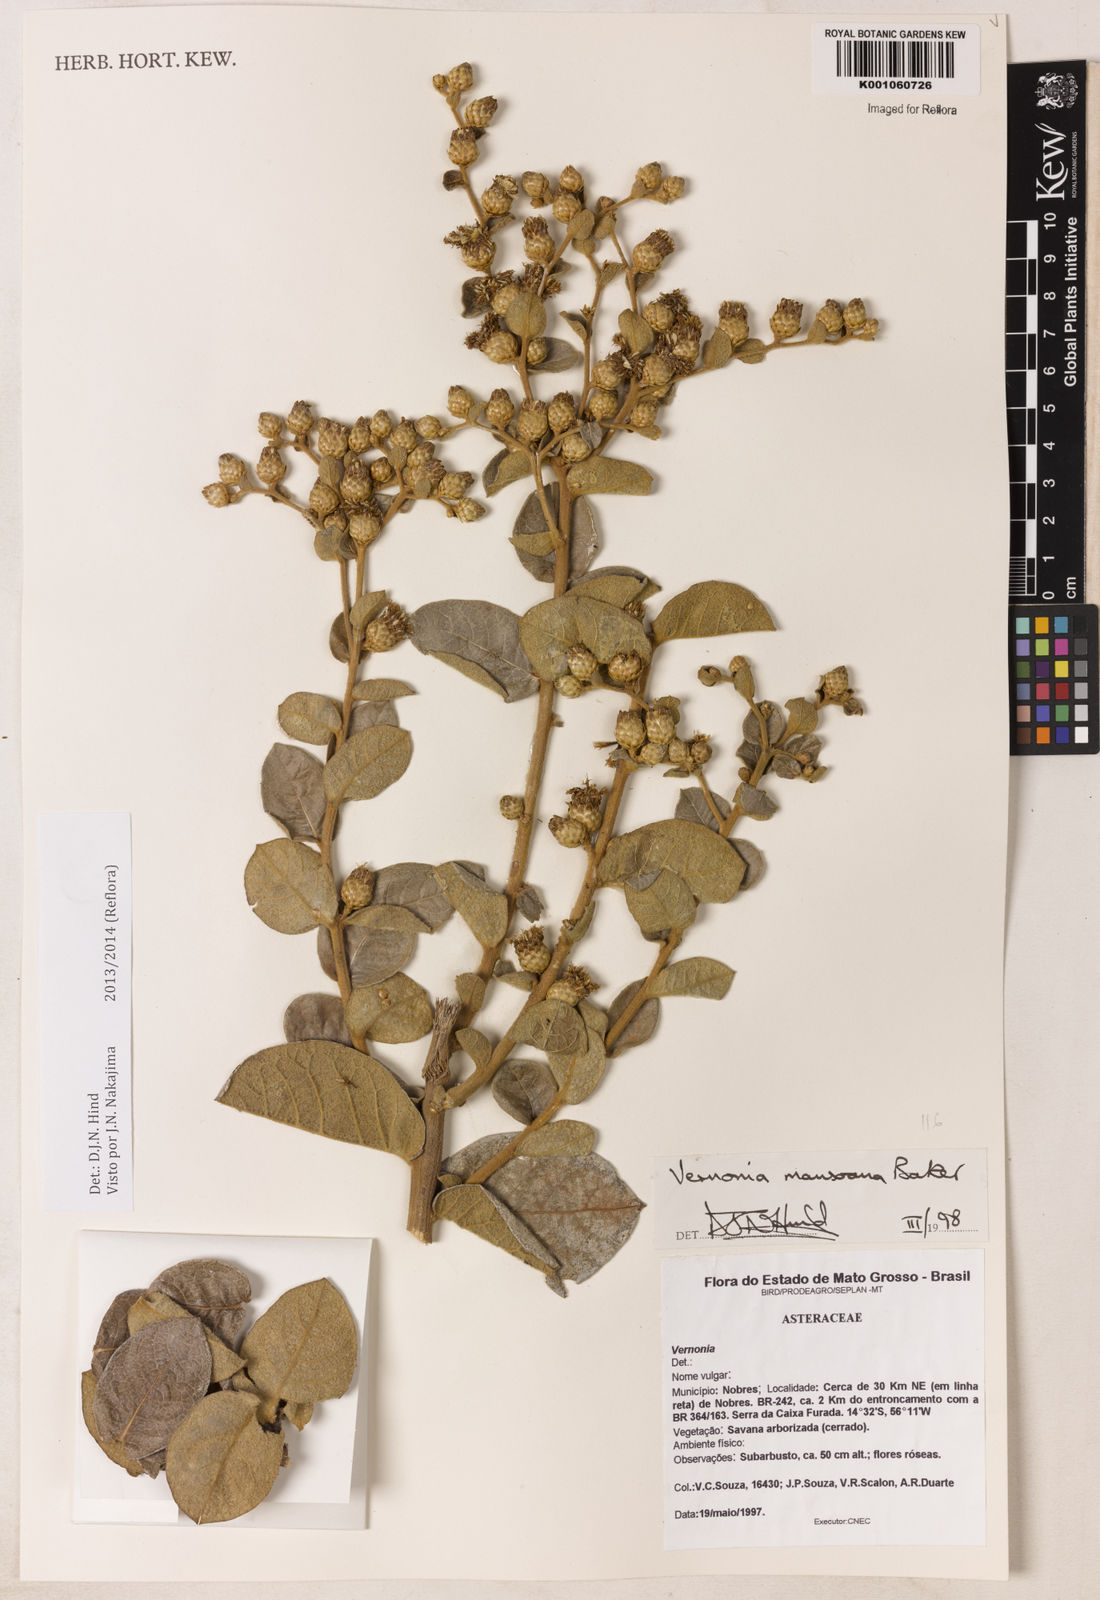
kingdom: Plantae
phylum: Tracheophyta
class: Magnoliopsida
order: Asterales
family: Asteraceae
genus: Lessingianthus
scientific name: Lessingianthus mansoanus
